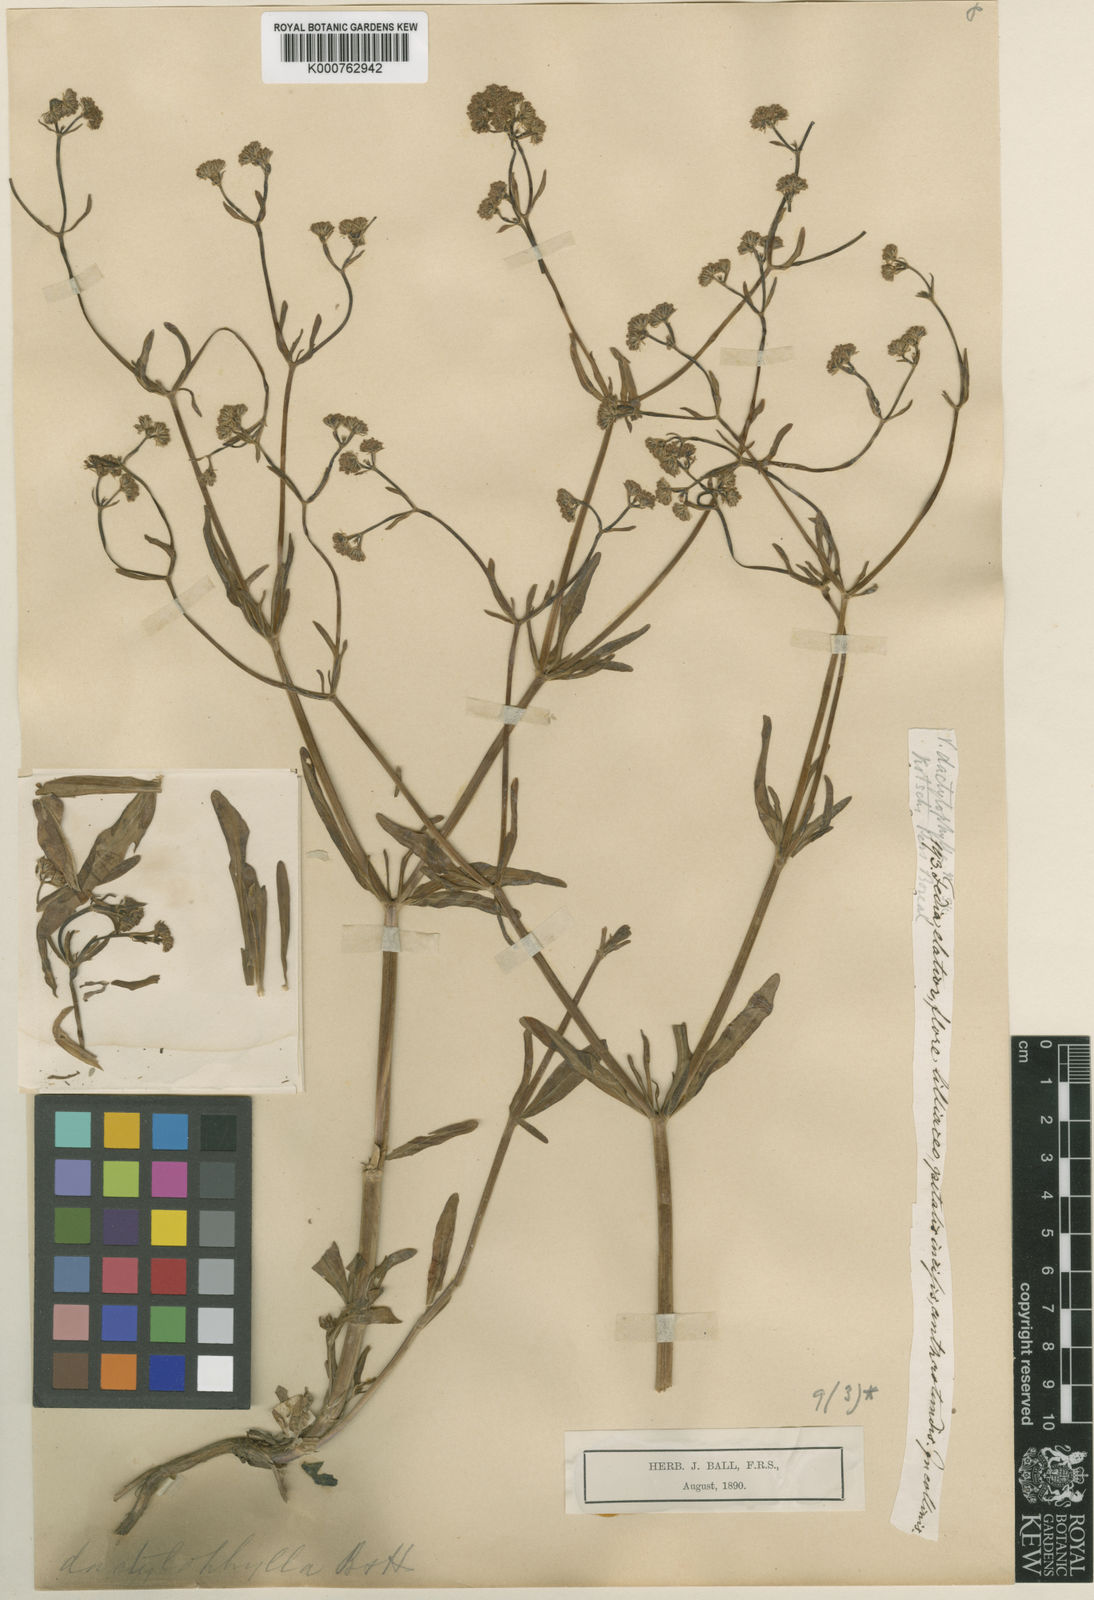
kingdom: Plantae
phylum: Tracheophyta
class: Magnoliopsida
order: Dipsacales
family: Caprifoliaceae
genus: Valerianella
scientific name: Valerianella dactylophylla
